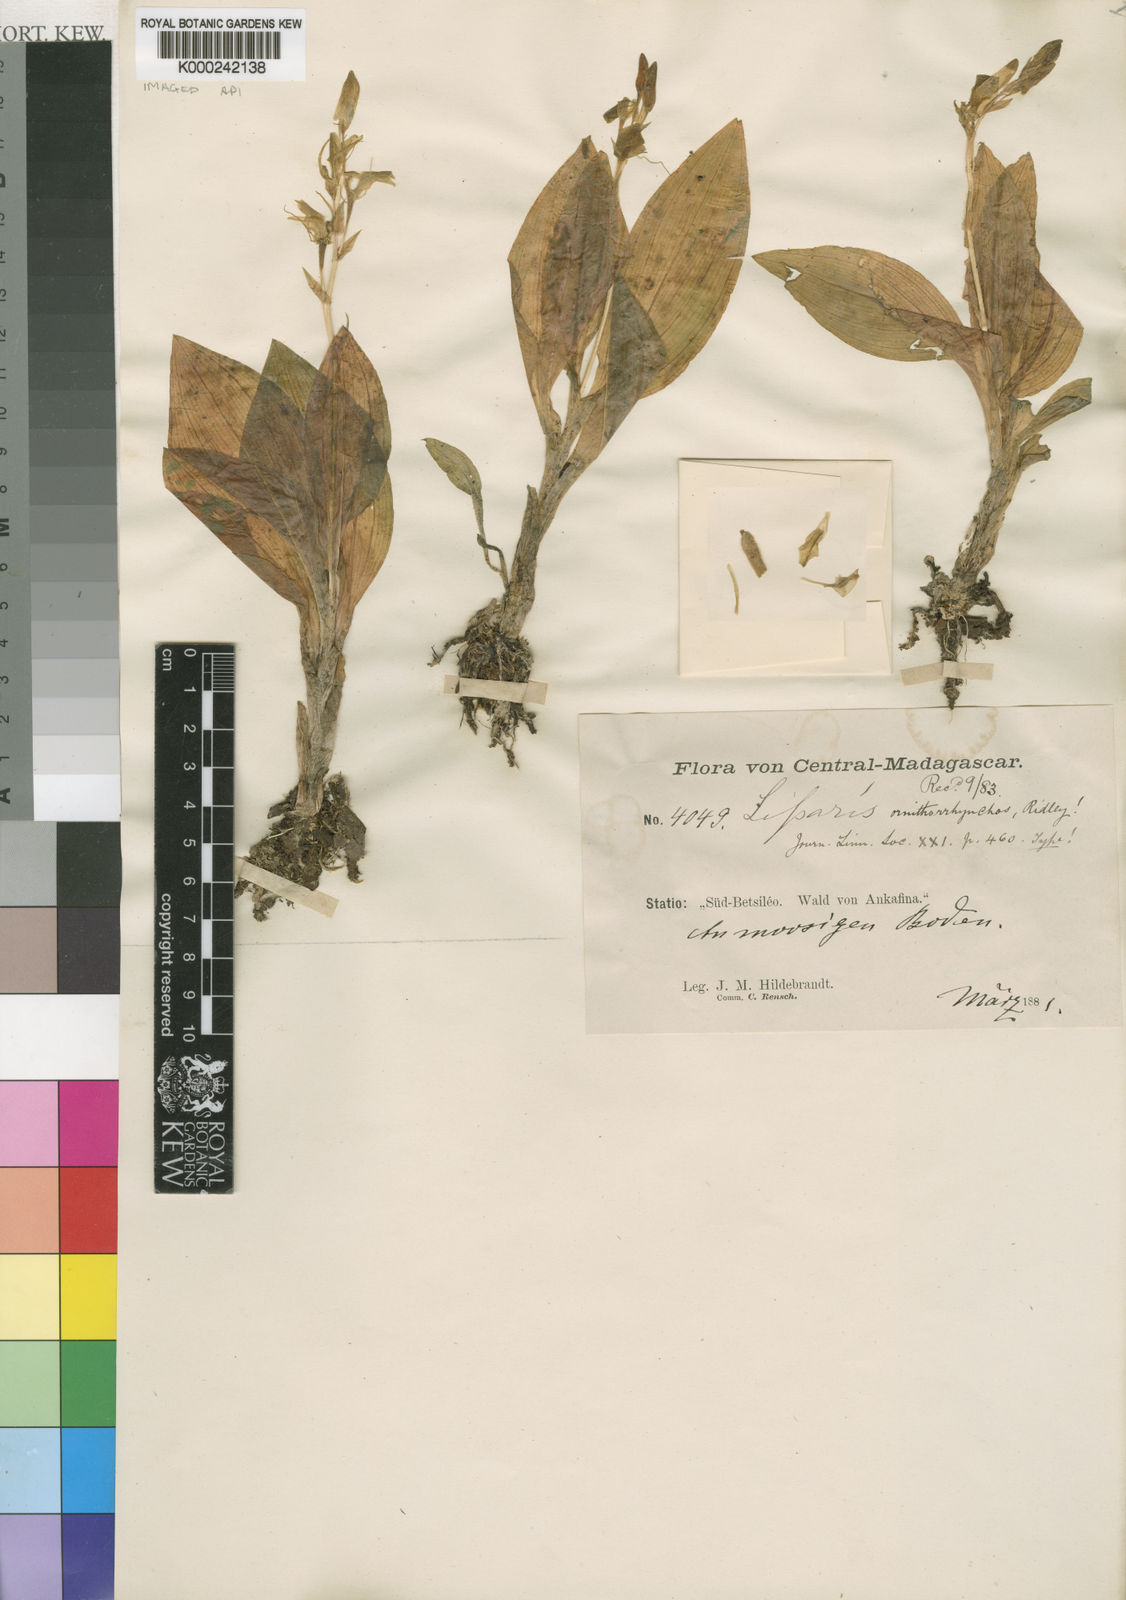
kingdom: Plantae
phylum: Tracheophyta
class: Liliopsida
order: Asparagales
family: Orchidaceae
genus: Liparis
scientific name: Liparis ornithorrhynchos
